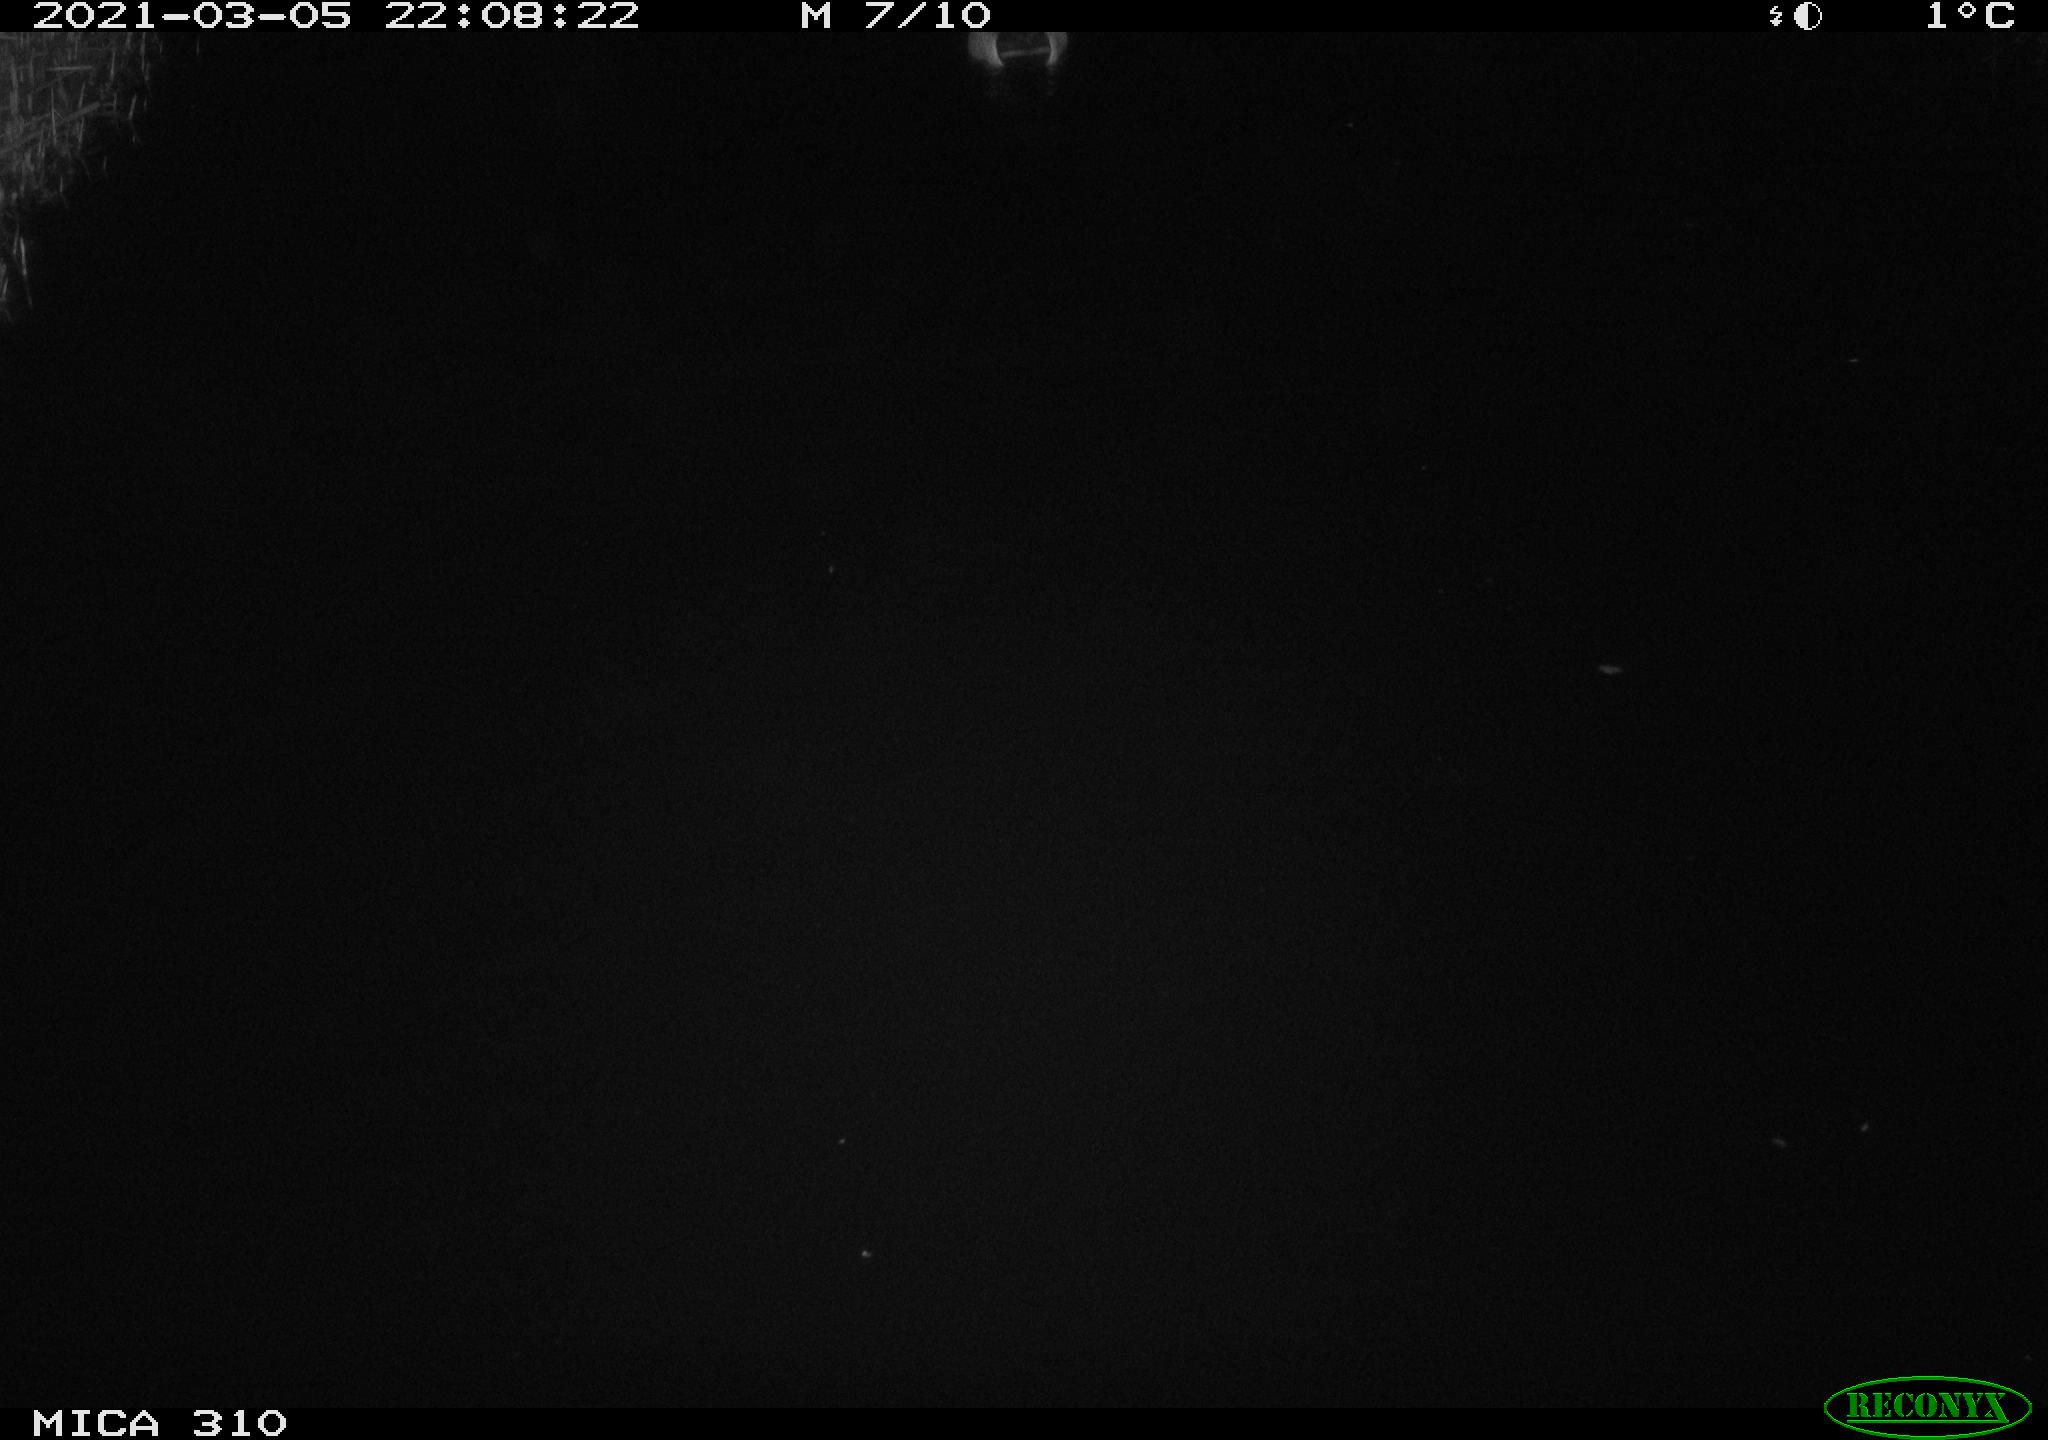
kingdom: Animalia
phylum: Chordata
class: Aves
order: Anseriformes
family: Anatidae
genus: Anas
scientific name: Anas platyrhynchos
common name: Mallard
